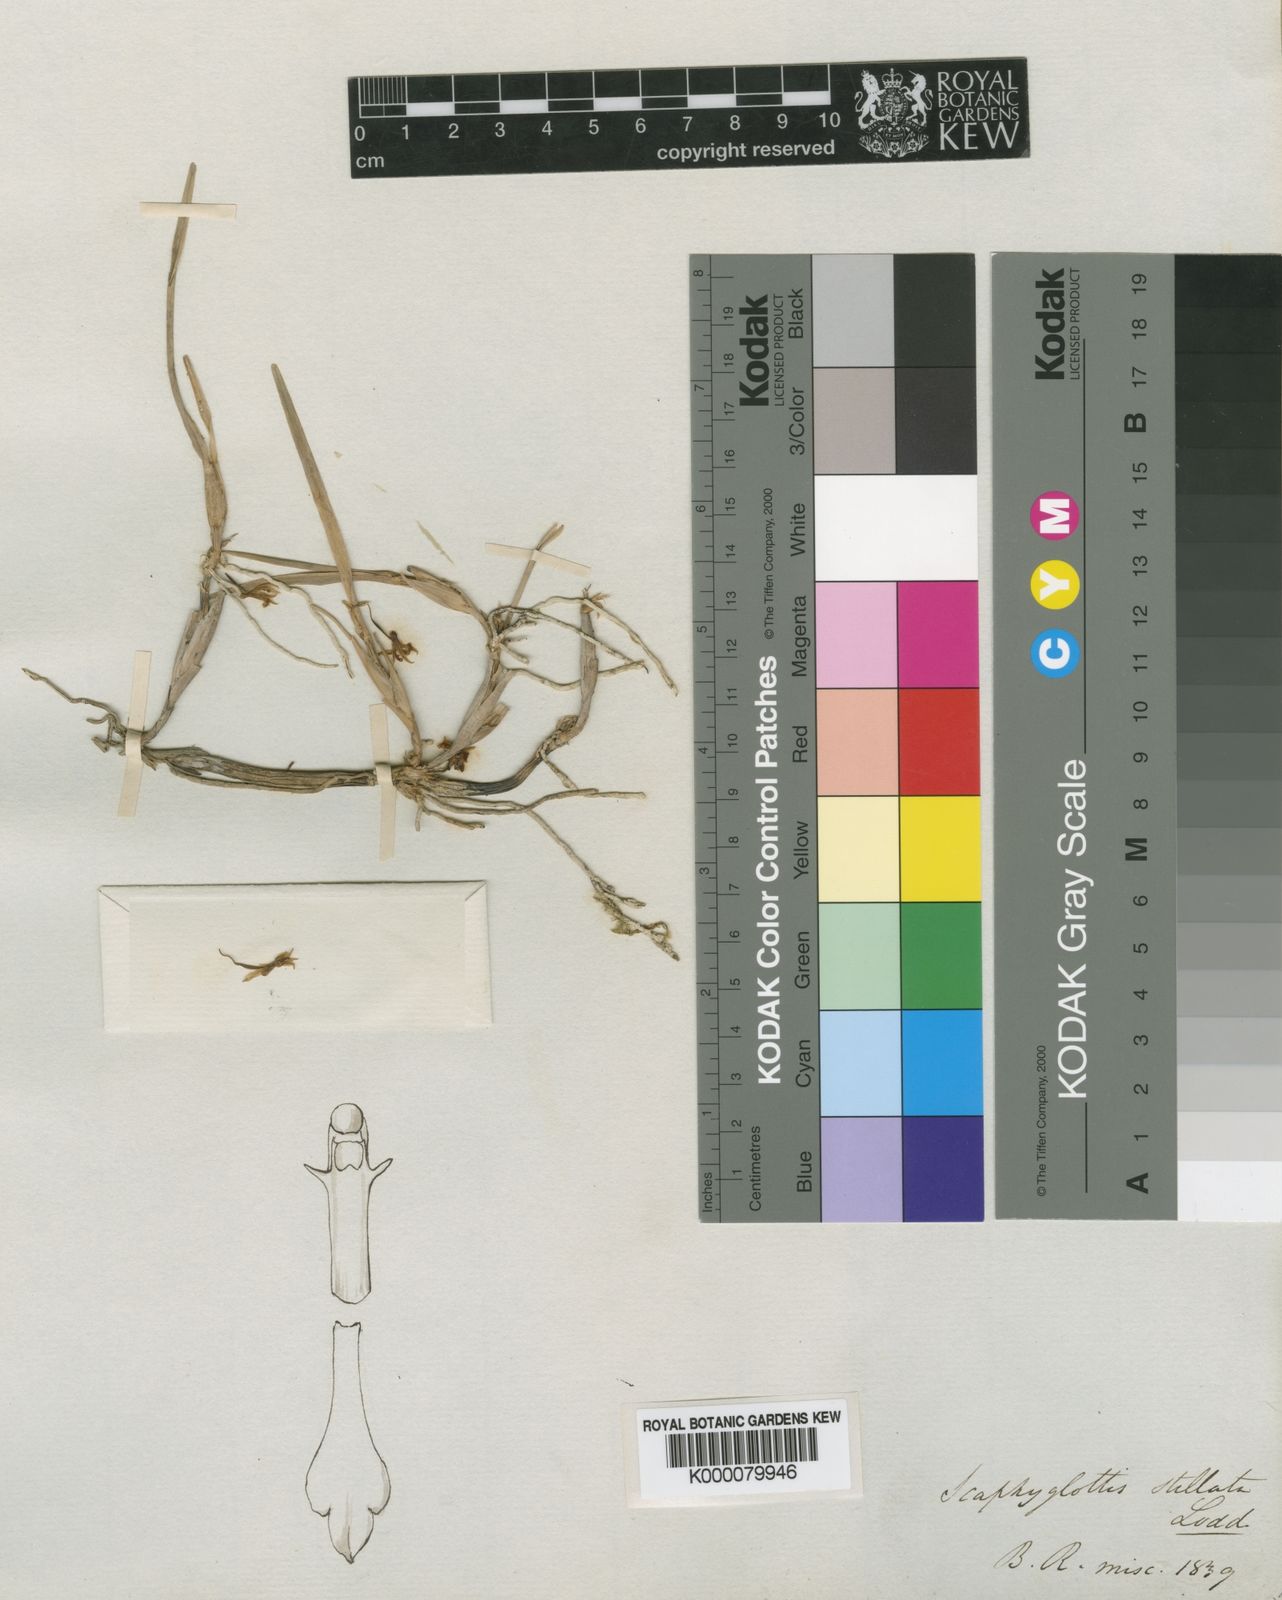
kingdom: Plantae
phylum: Tracheophyta
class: Liliopsida
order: Asparagales
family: Orchidaceae
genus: Scaphyglottis
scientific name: Scaphyglottis stellata
